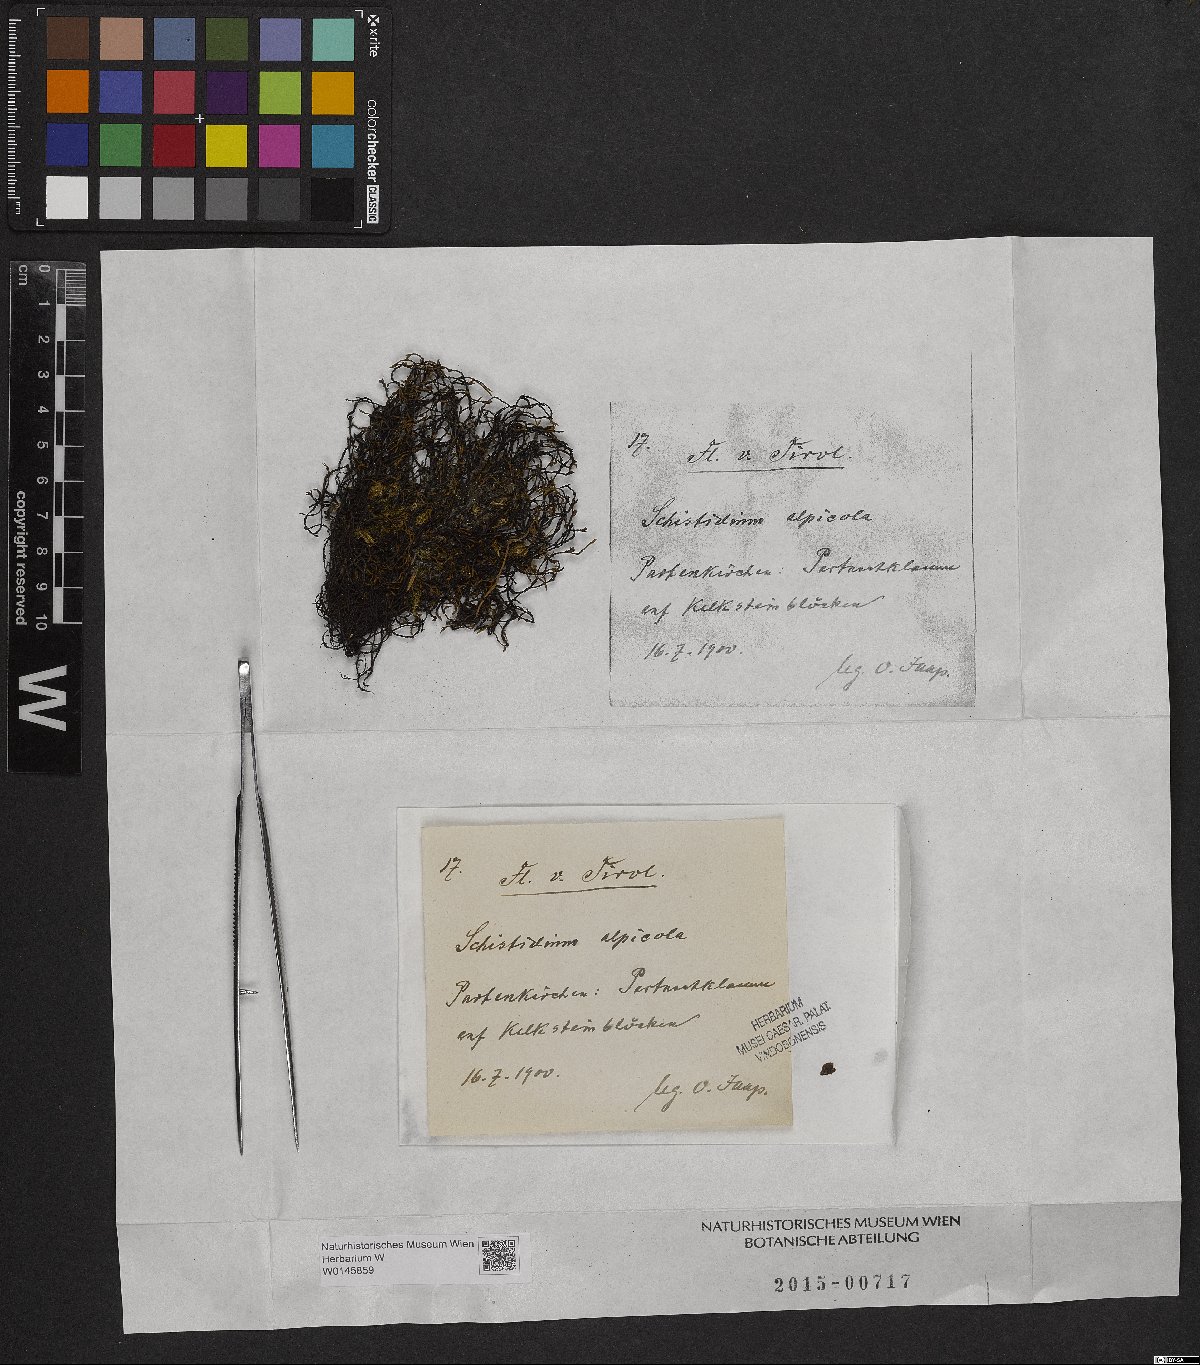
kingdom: Plantae
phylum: Bryophyta
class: Bryopsida
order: Grimmiales
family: Grimmiaceae
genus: Schistidium
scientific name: Schistidium agassizii
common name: Agassiz's bloom moss
